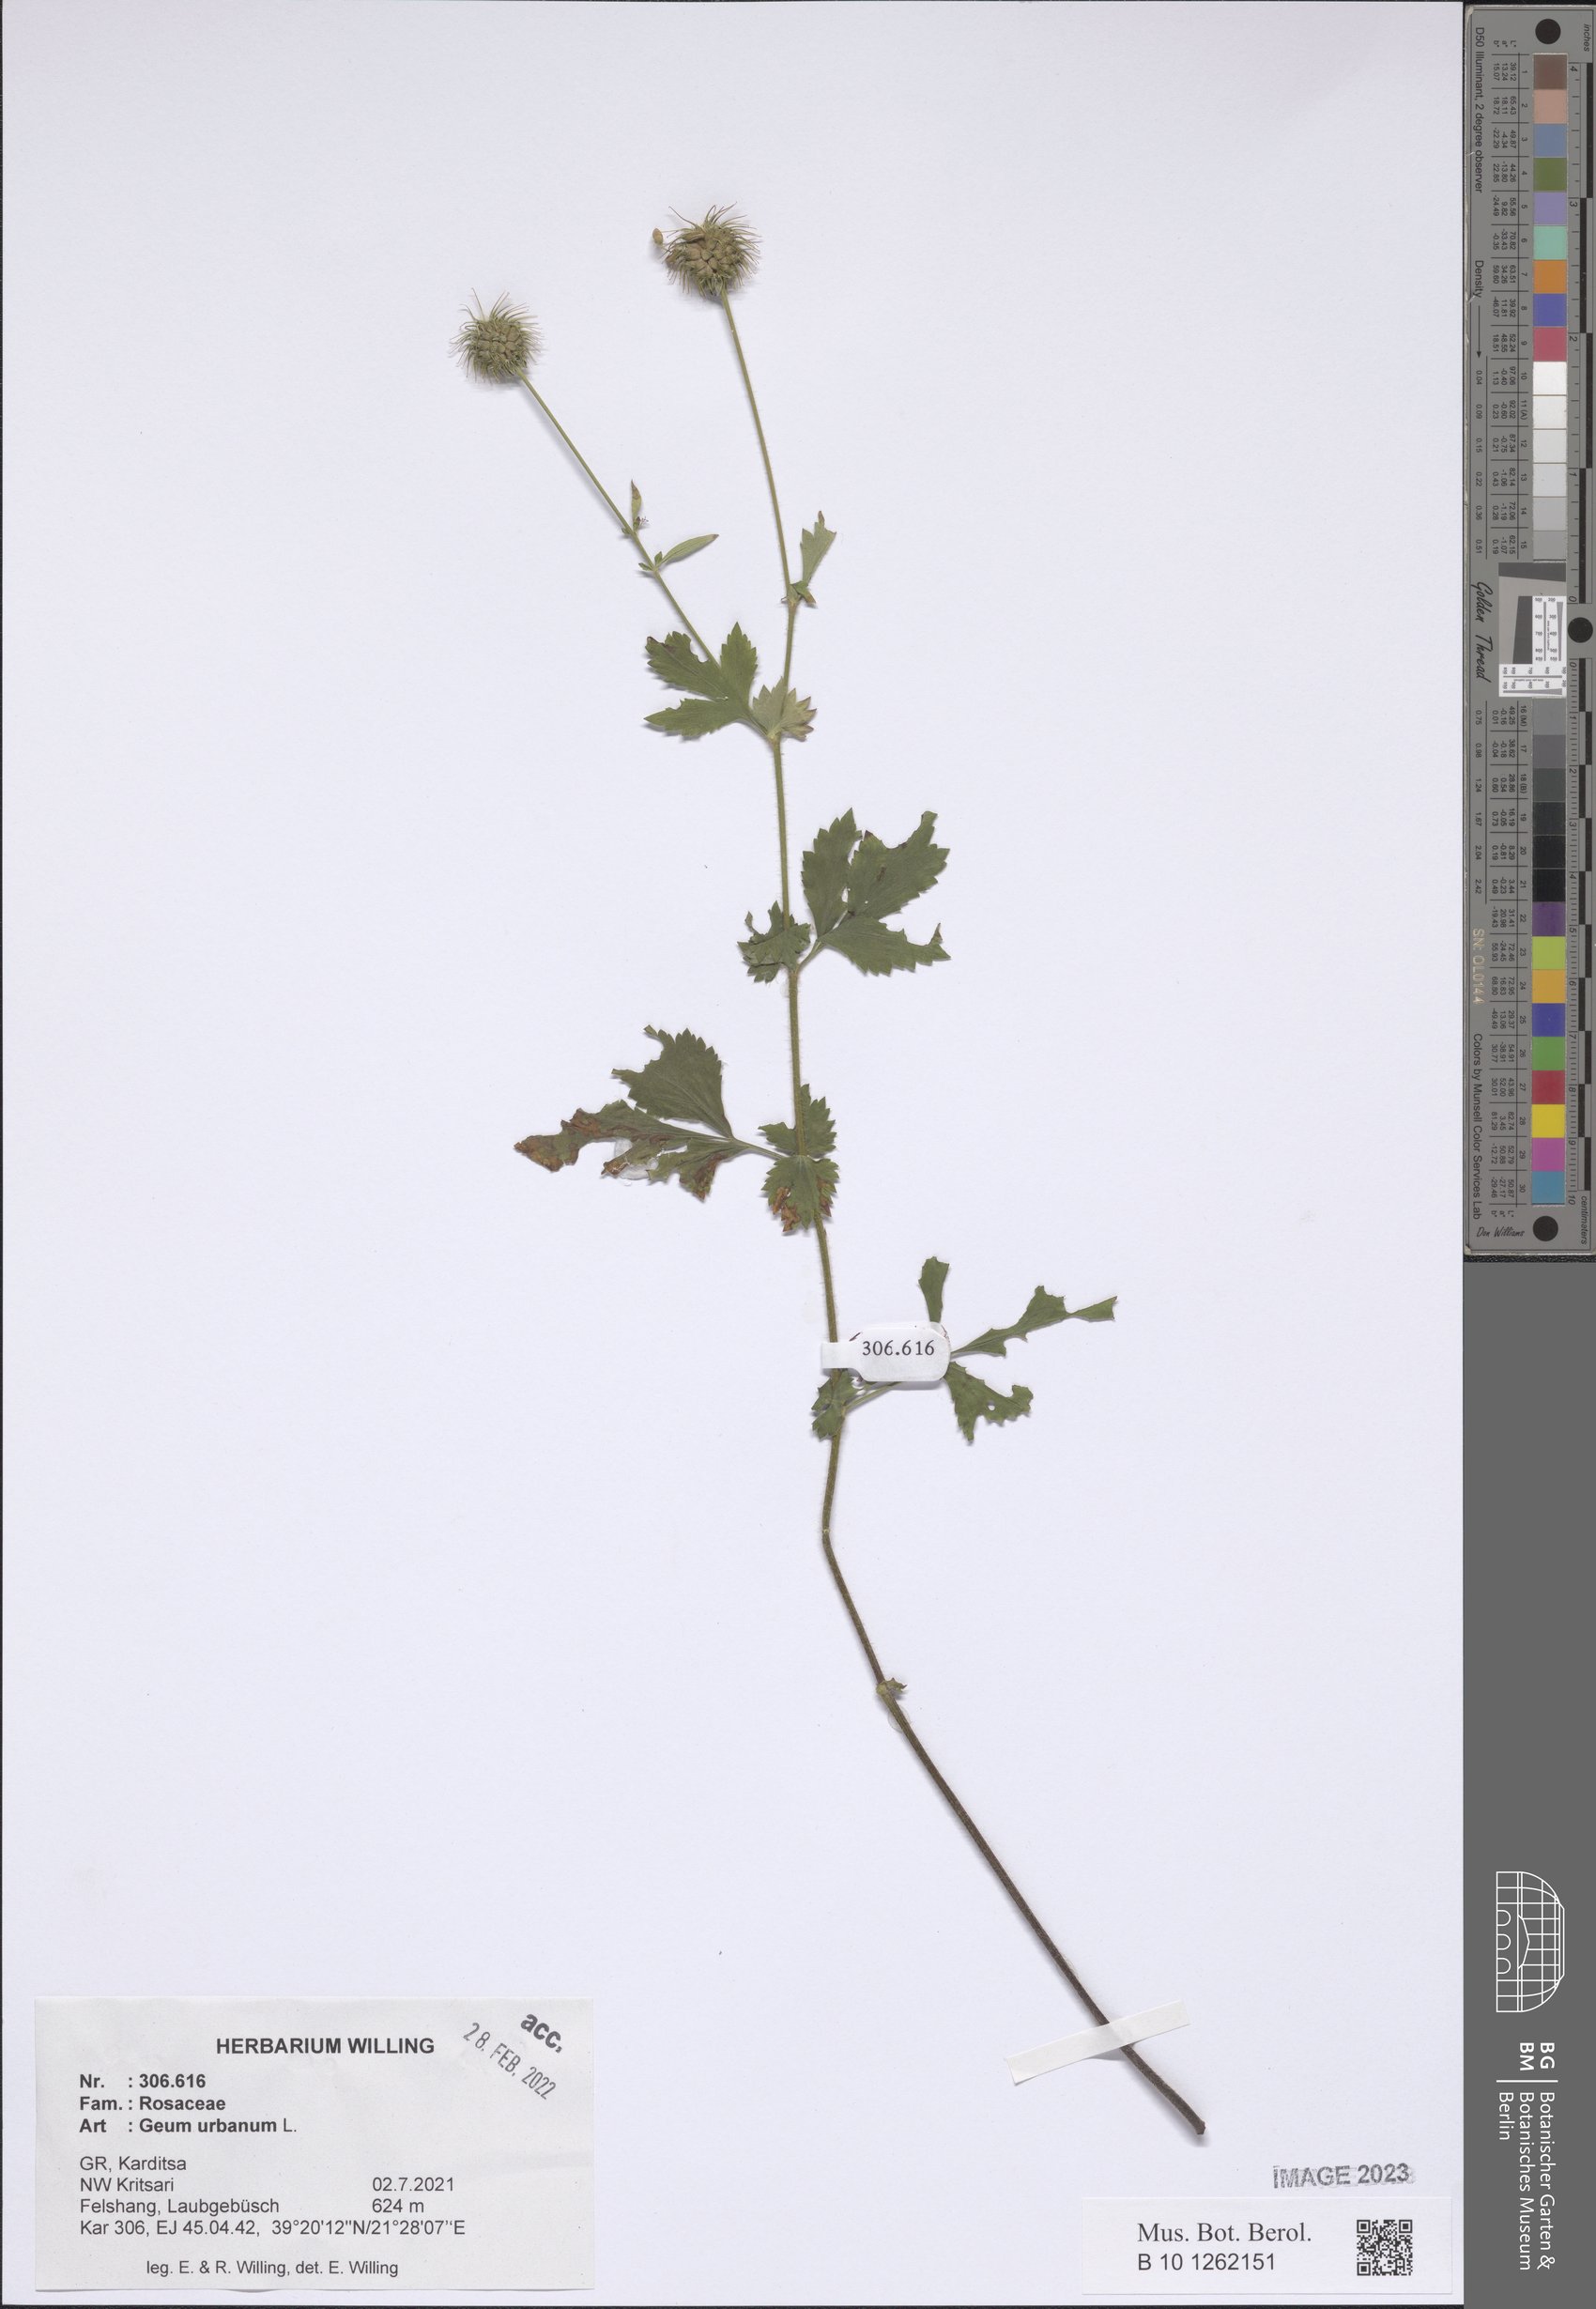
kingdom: Plantae
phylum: Tracheophyta
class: Magnoliopsida
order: Rosales
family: Rosaceae
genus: Geum
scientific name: Geum urbanum
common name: Wood avens
